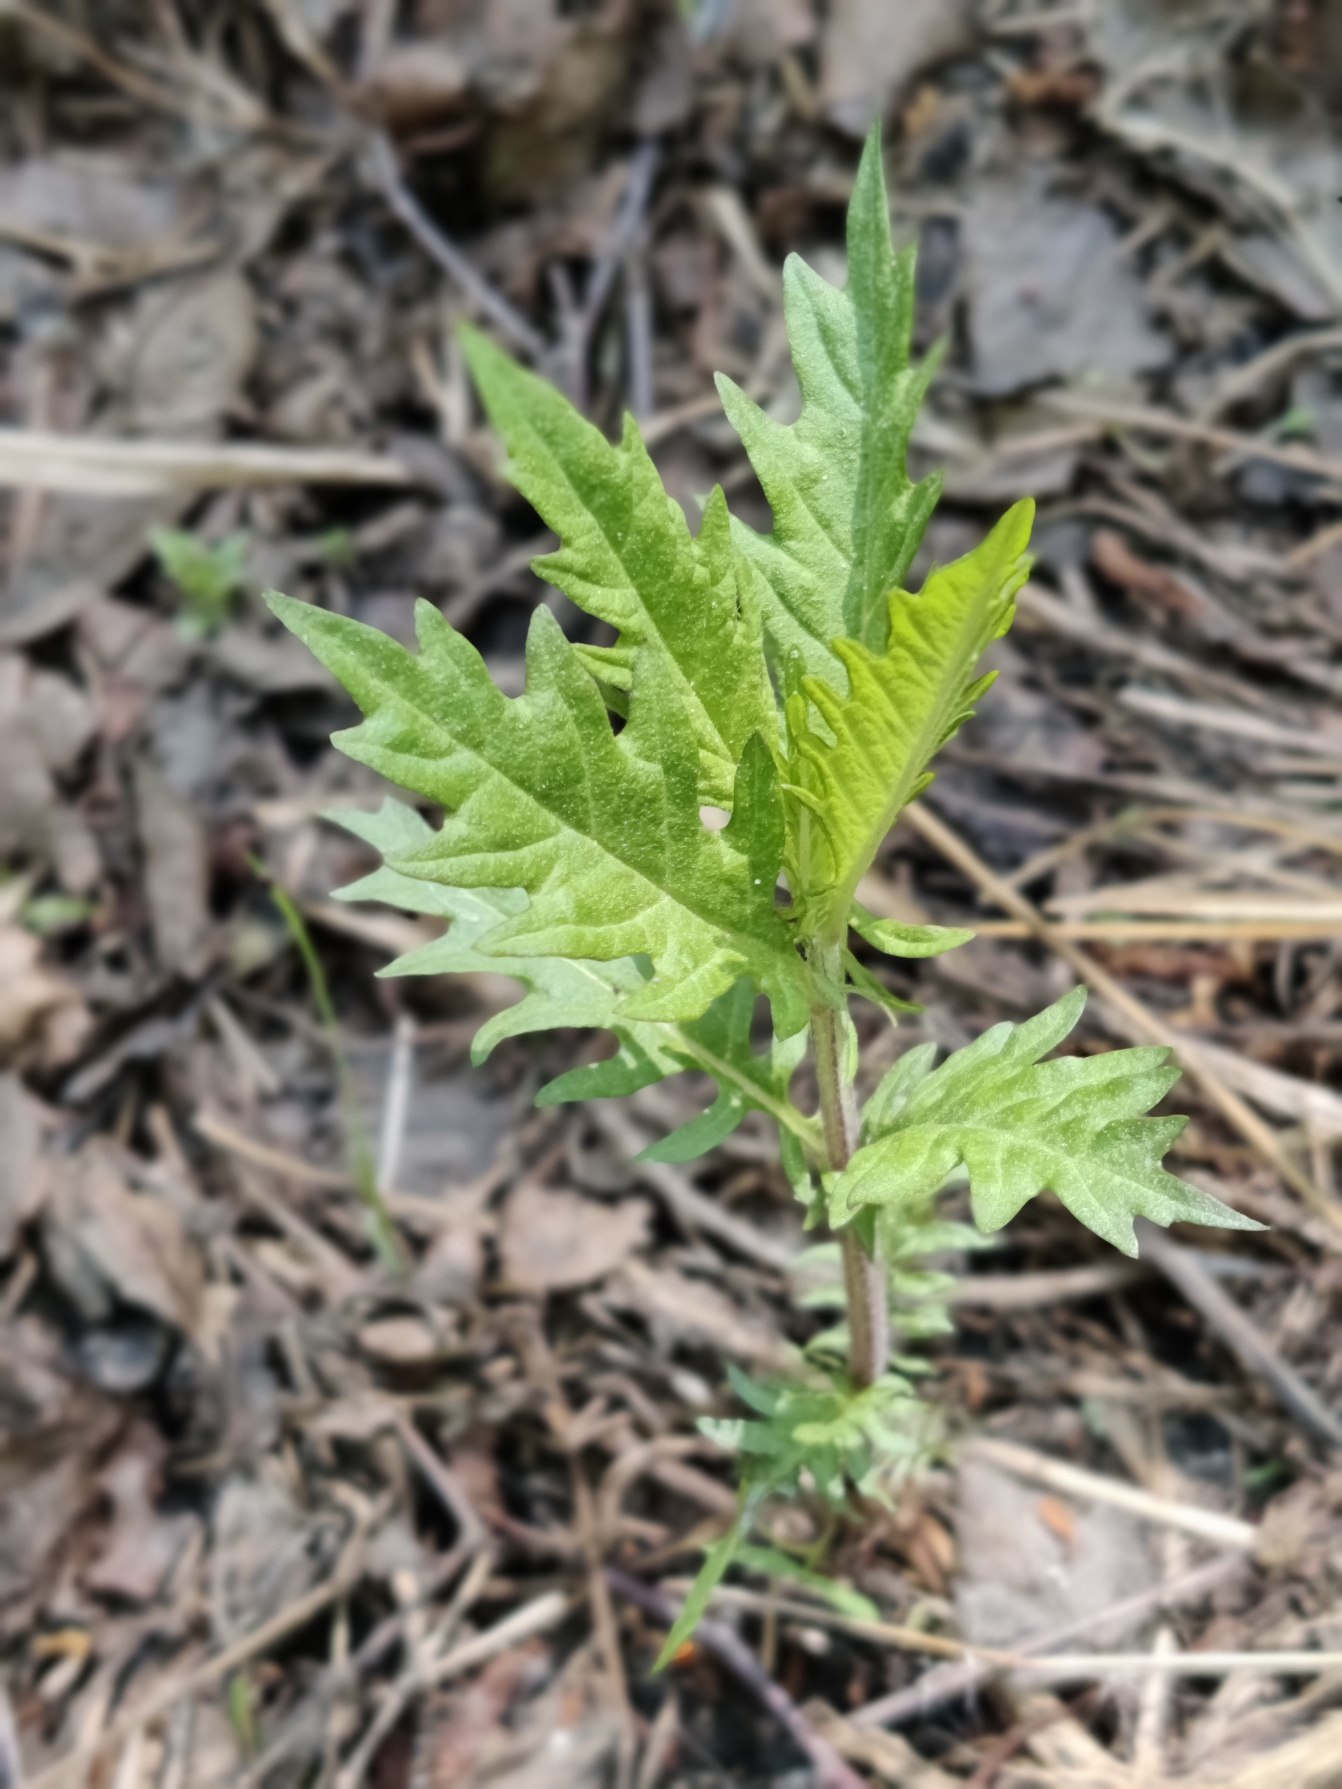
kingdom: Plantae
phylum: Tracheophyta
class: Magnoliopsida
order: Lamiales
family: Lamiaceae
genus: Lycopus
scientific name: Lycopus europaeus
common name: Sværtevæld
